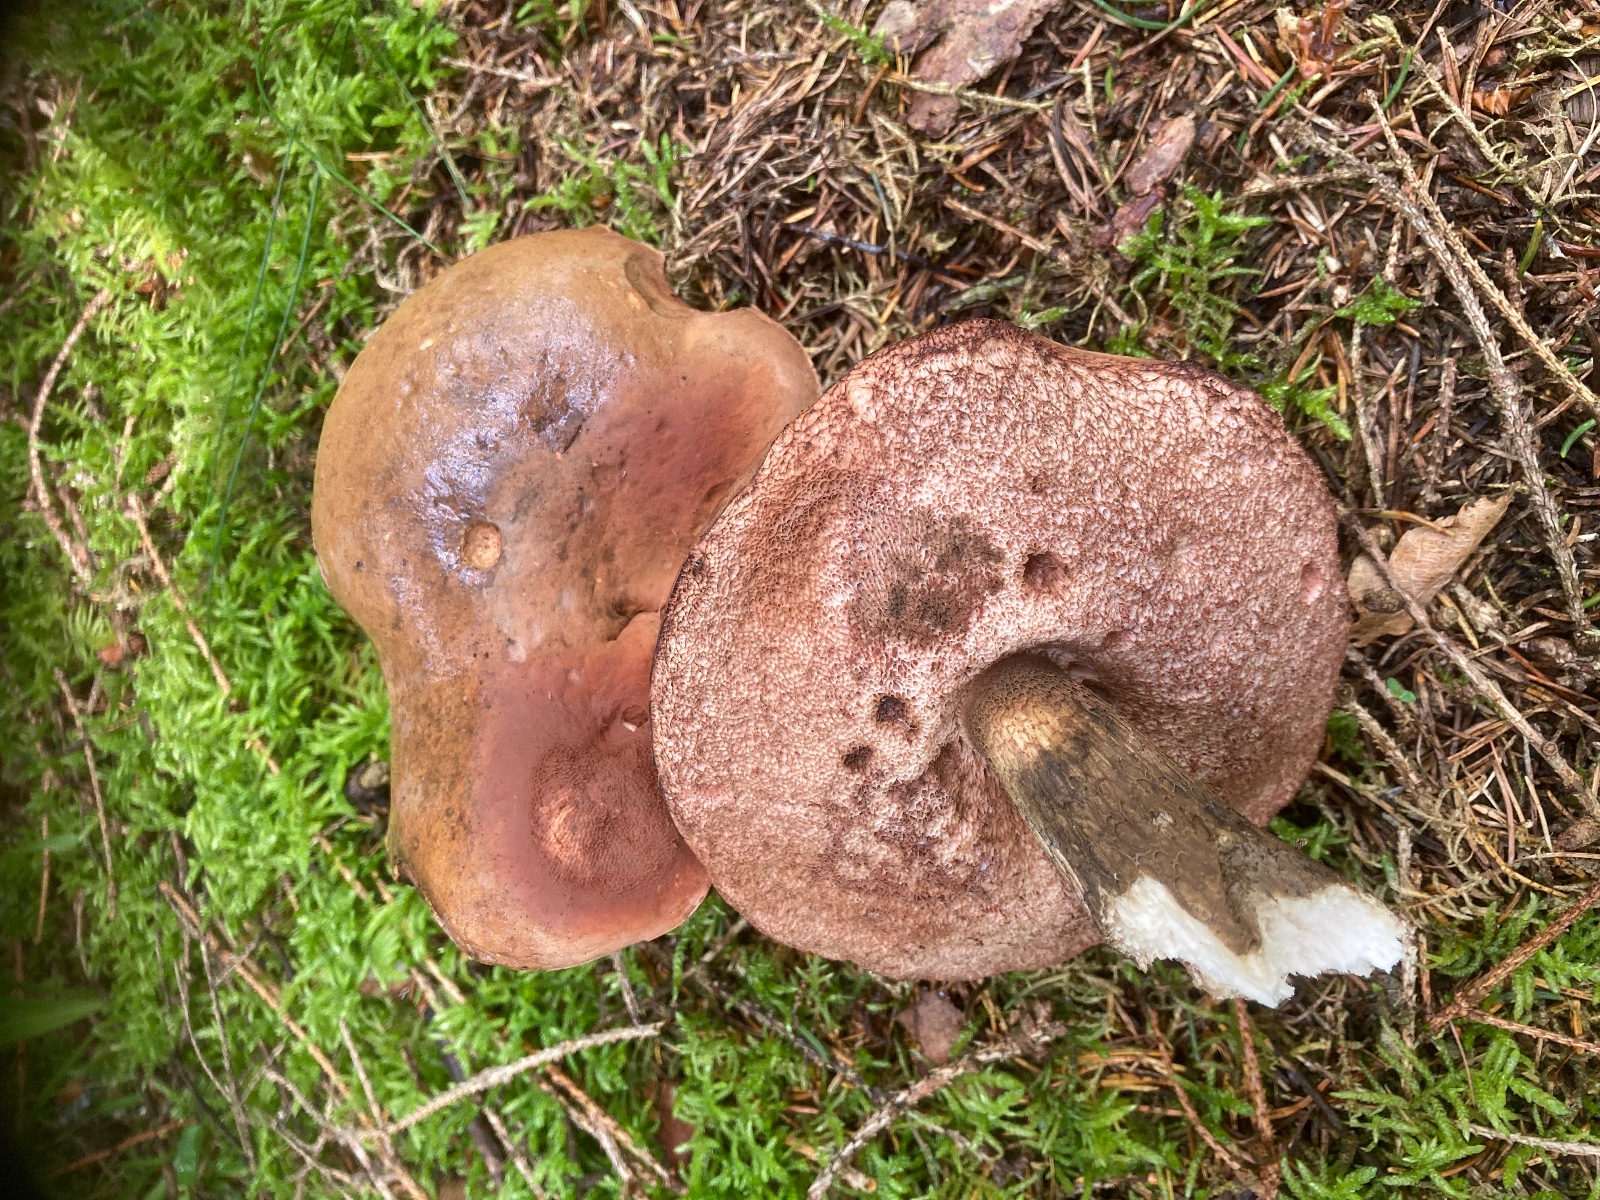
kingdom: Fungi
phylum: Basidiomycota
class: Agaricomycetes
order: Boletales
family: Boletaceae
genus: Tylopilus
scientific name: Tylopilus felleus
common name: galderørhat
